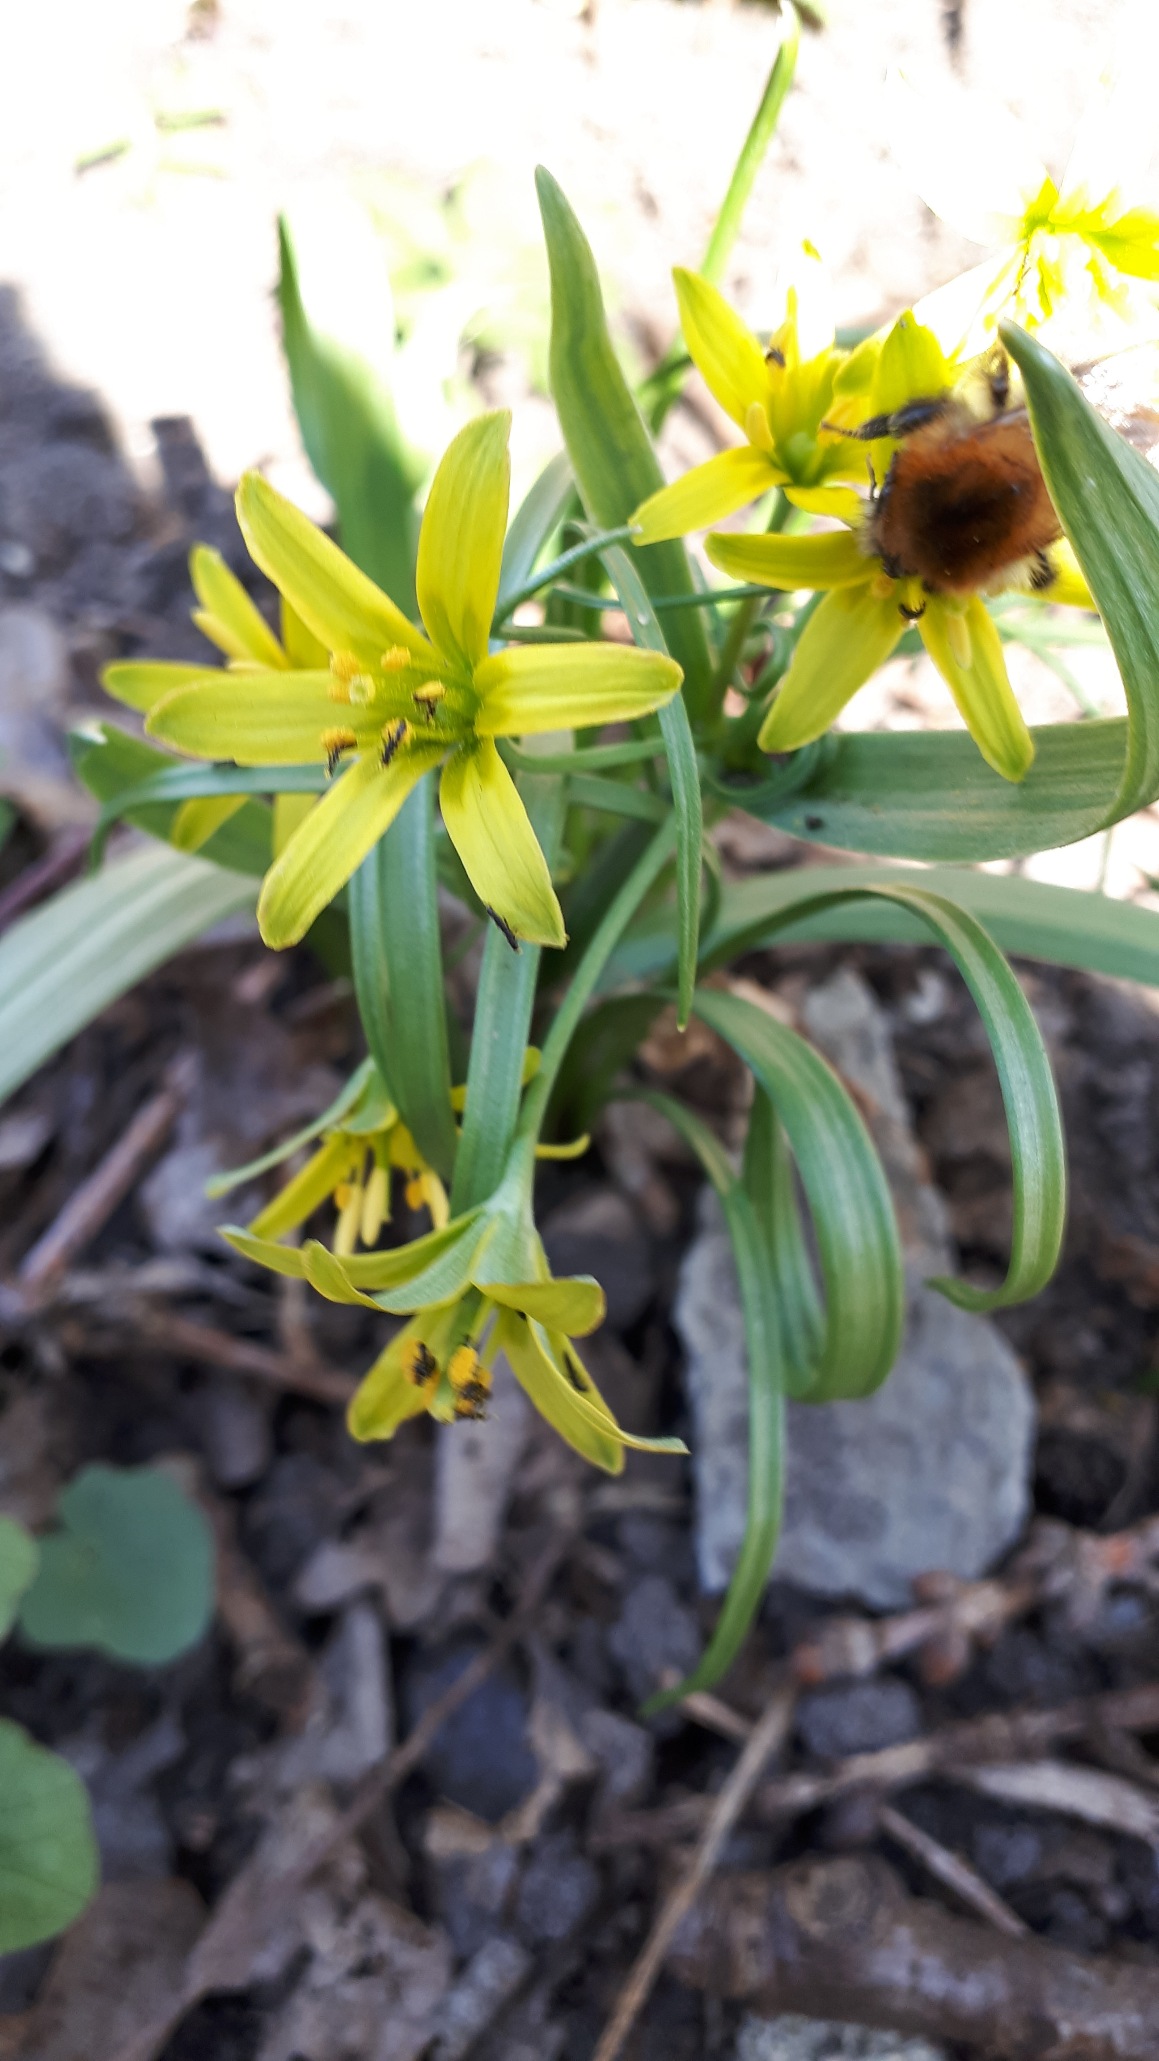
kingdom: Plantae
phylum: Tracheophyta
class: Liliopsida
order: Liliales
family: Liliaceae
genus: Gagea
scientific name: Gagea lutea
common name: Almindelig guldstjerne
